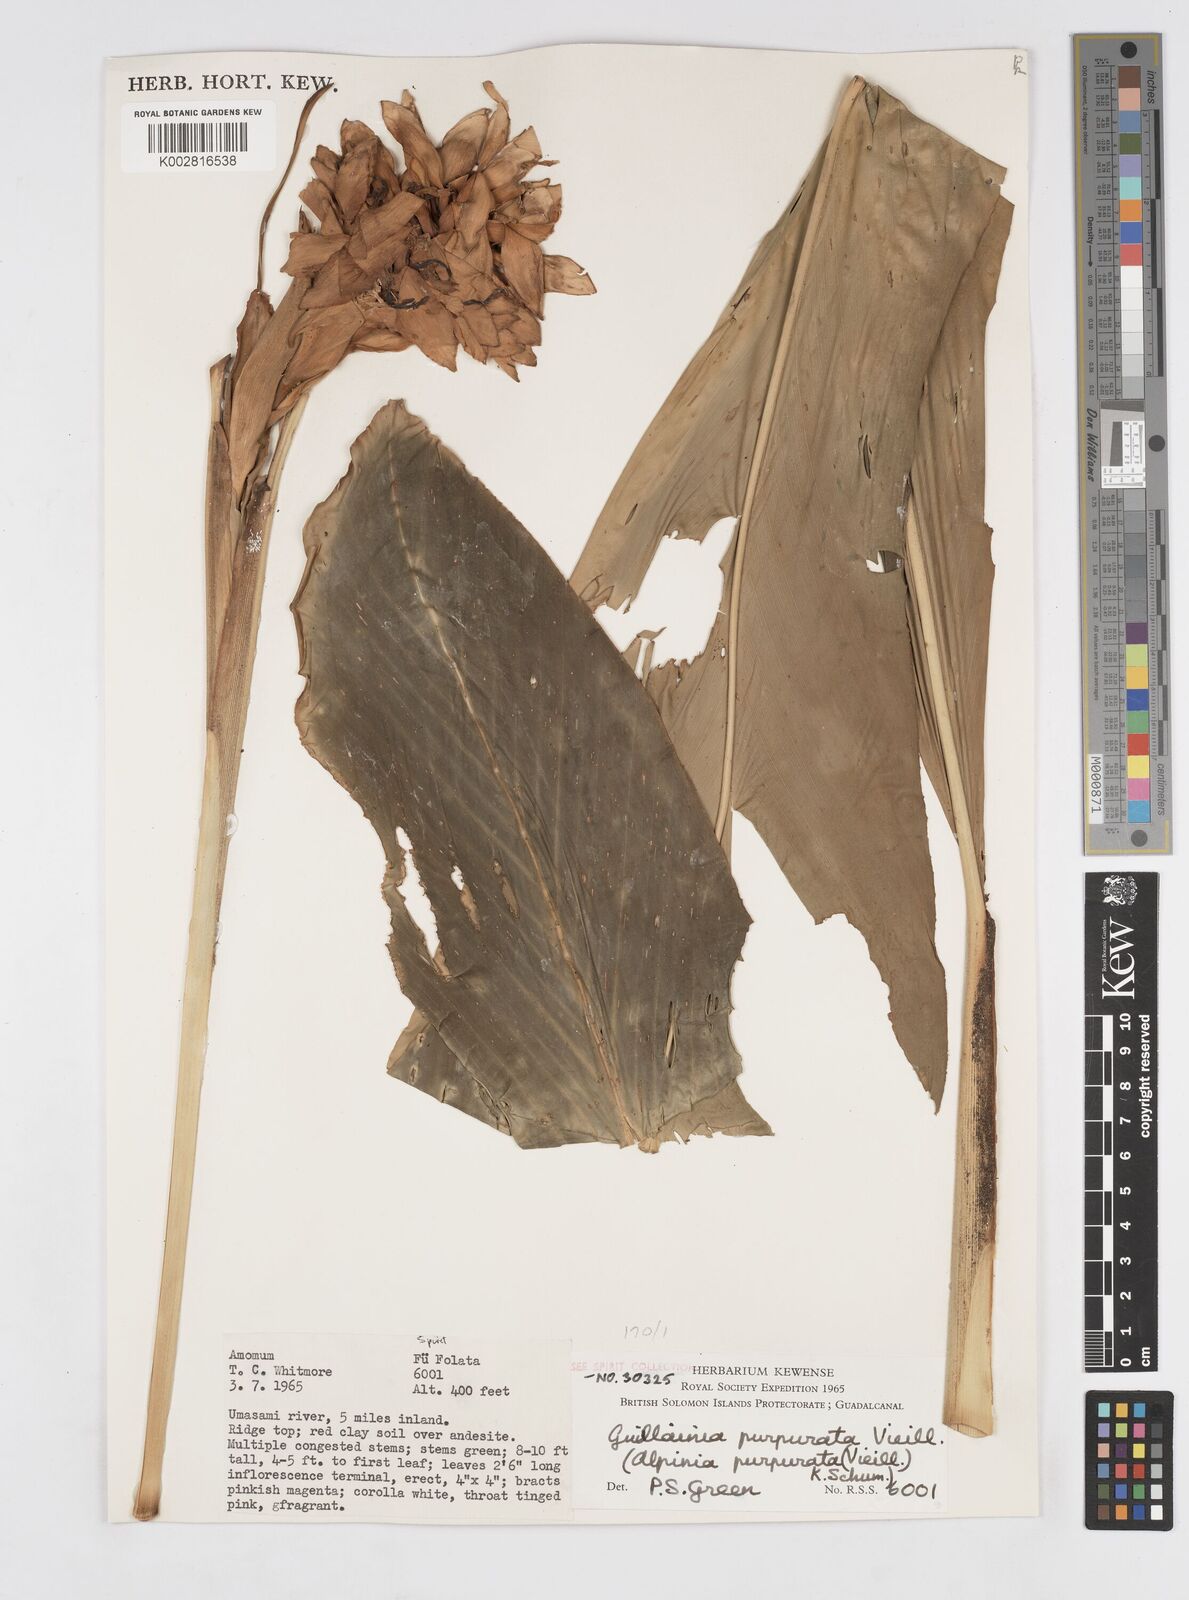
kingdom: Plantae
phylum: Tracheophyta
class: Liliopsida
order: Zingiberales
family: Zingiberaceae
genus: Alpinia
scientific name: Alpinia purpurata
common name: Red ginger
